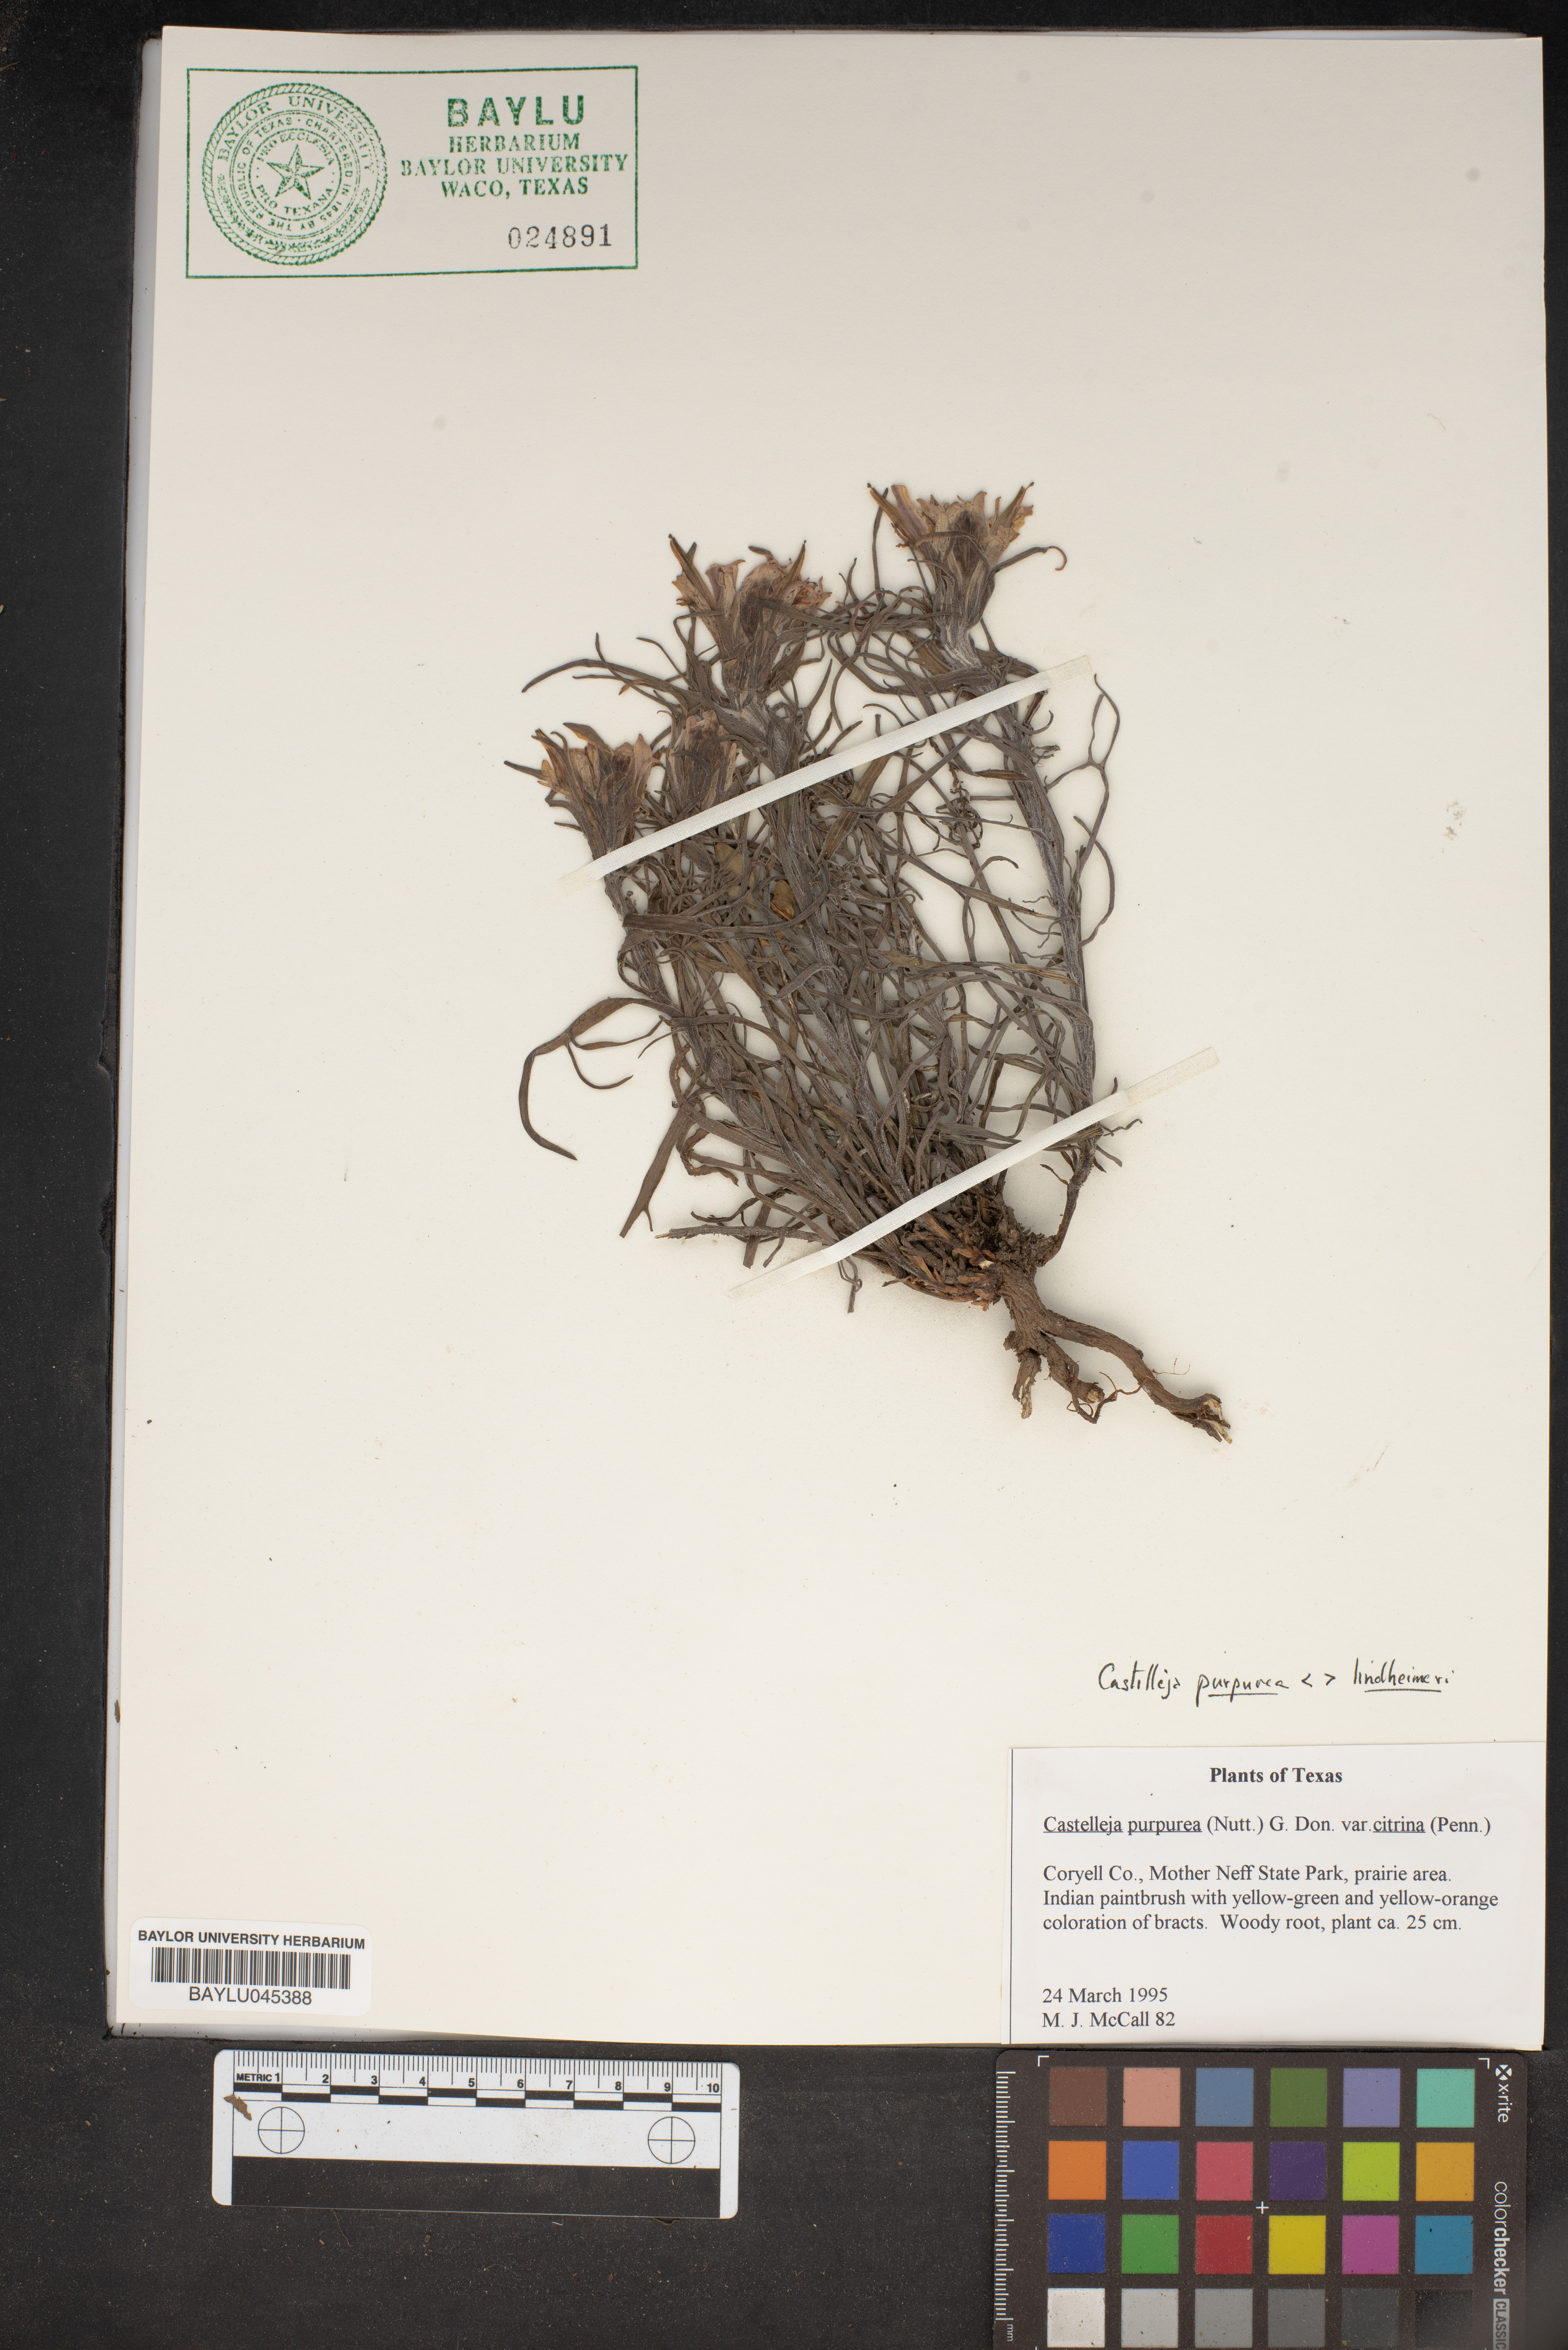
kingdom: Plantae
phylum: Tracheophyta
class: Magnoliopsida
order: Lamiales
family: Orobanchaceae
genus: Castilleja
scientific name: Castilleja lindheimeri
